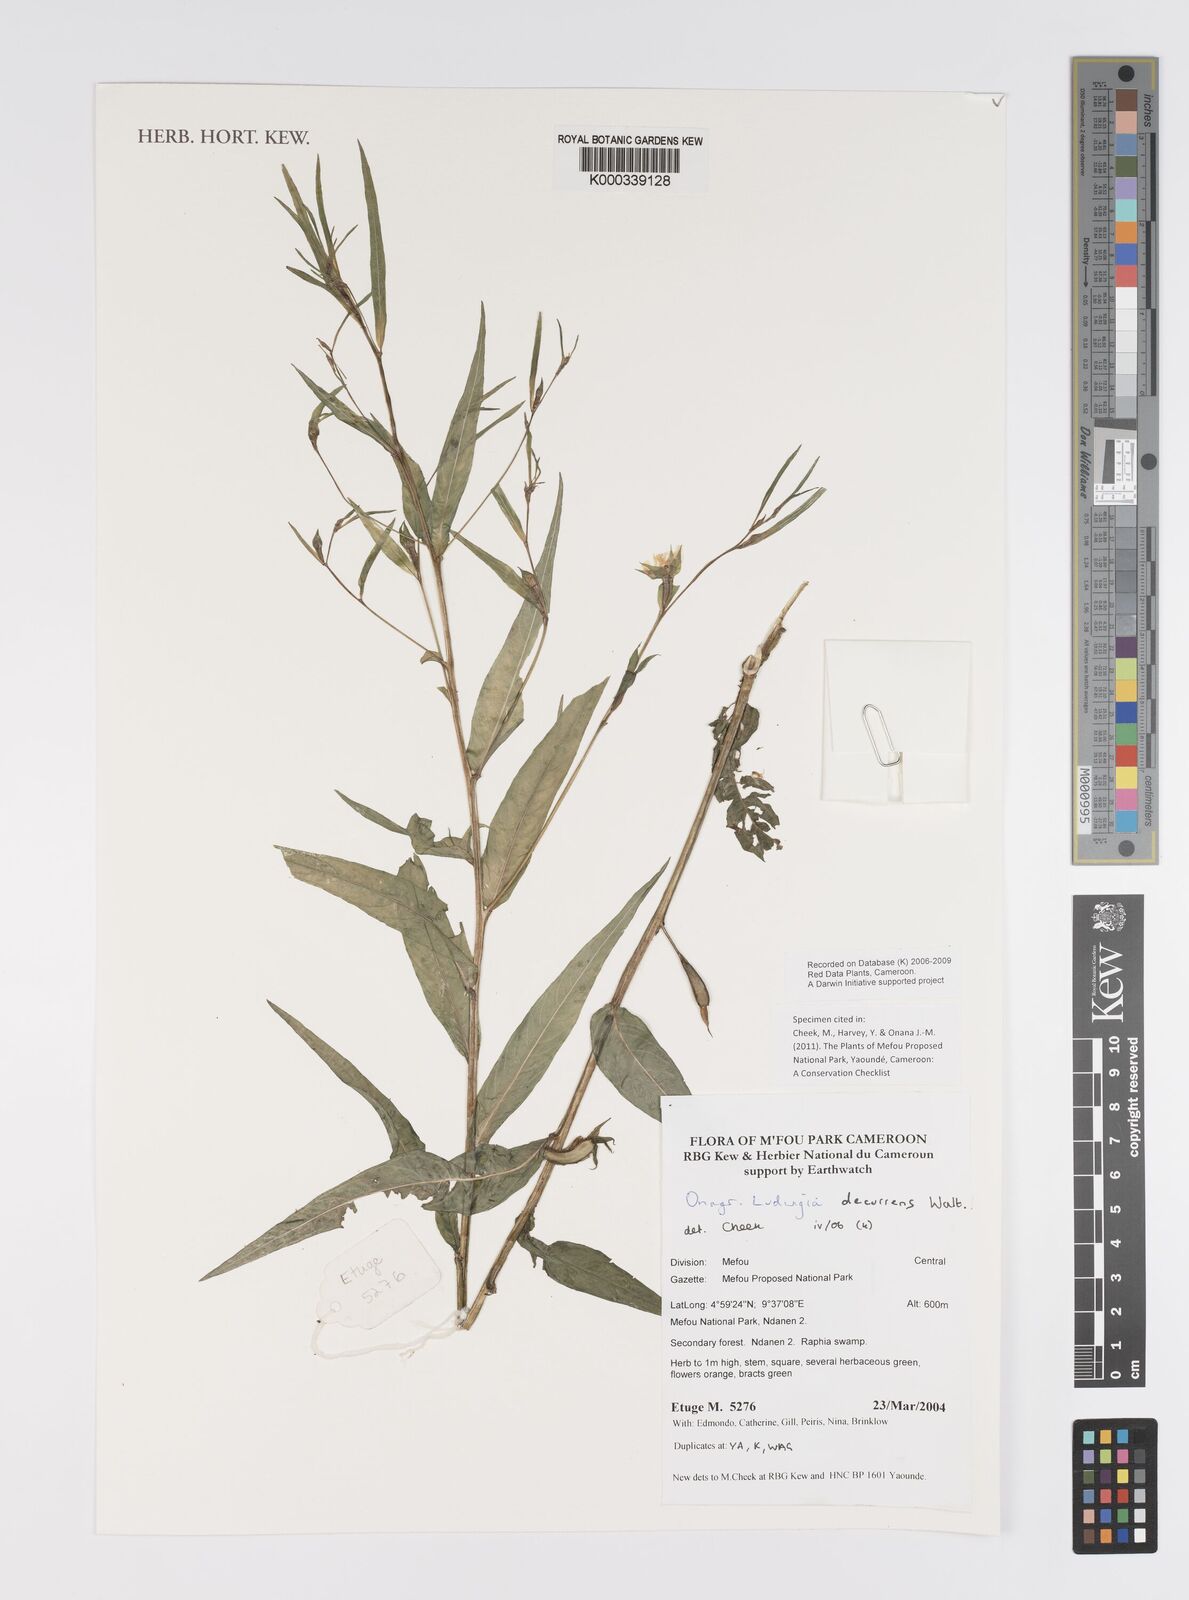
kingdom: Plantae
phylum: Tracheophyta
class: Magnoliopsida
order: Myrtales
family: Onagraceae
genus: Ludwigia
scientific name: Ludwigia decurrens
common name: Winged water-primrose
